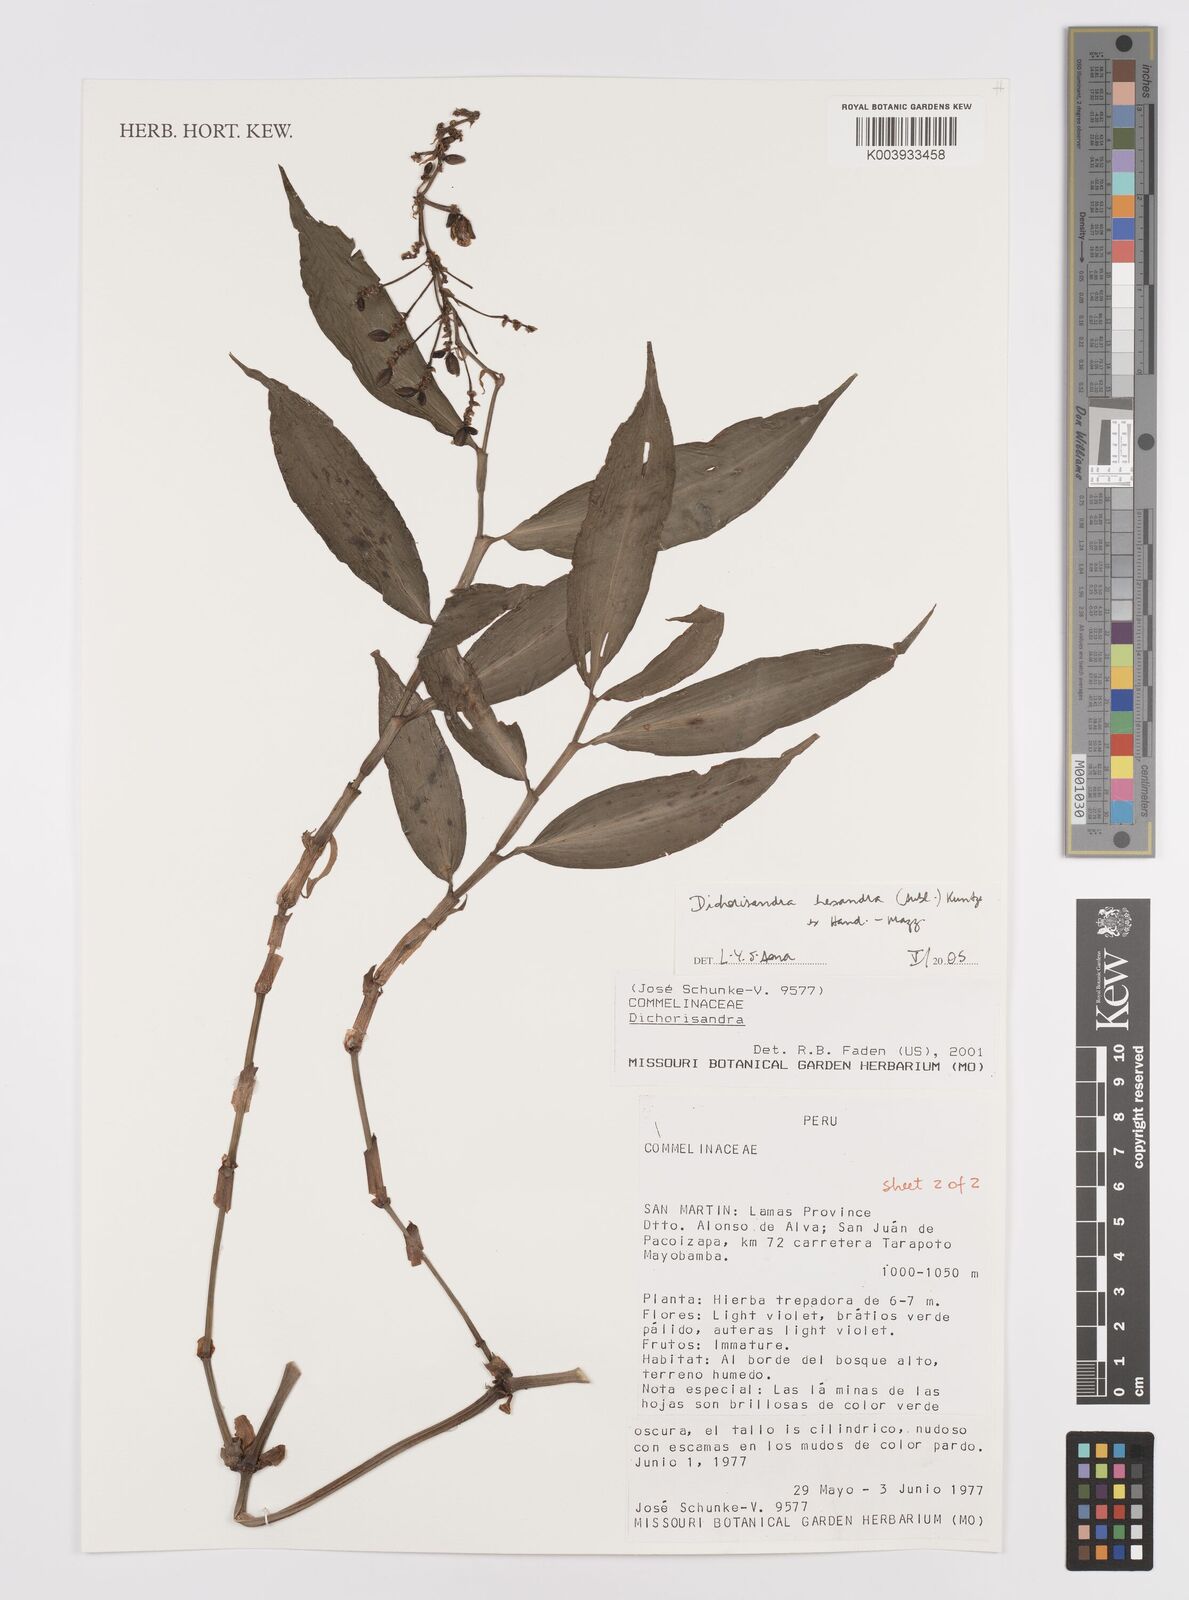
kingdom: Plantae
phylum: Tracheophyta
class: Liliopsida
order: Commelinales
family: Commelinaceae
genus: Dichorisandra
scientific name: Dichorisandra hexandra
